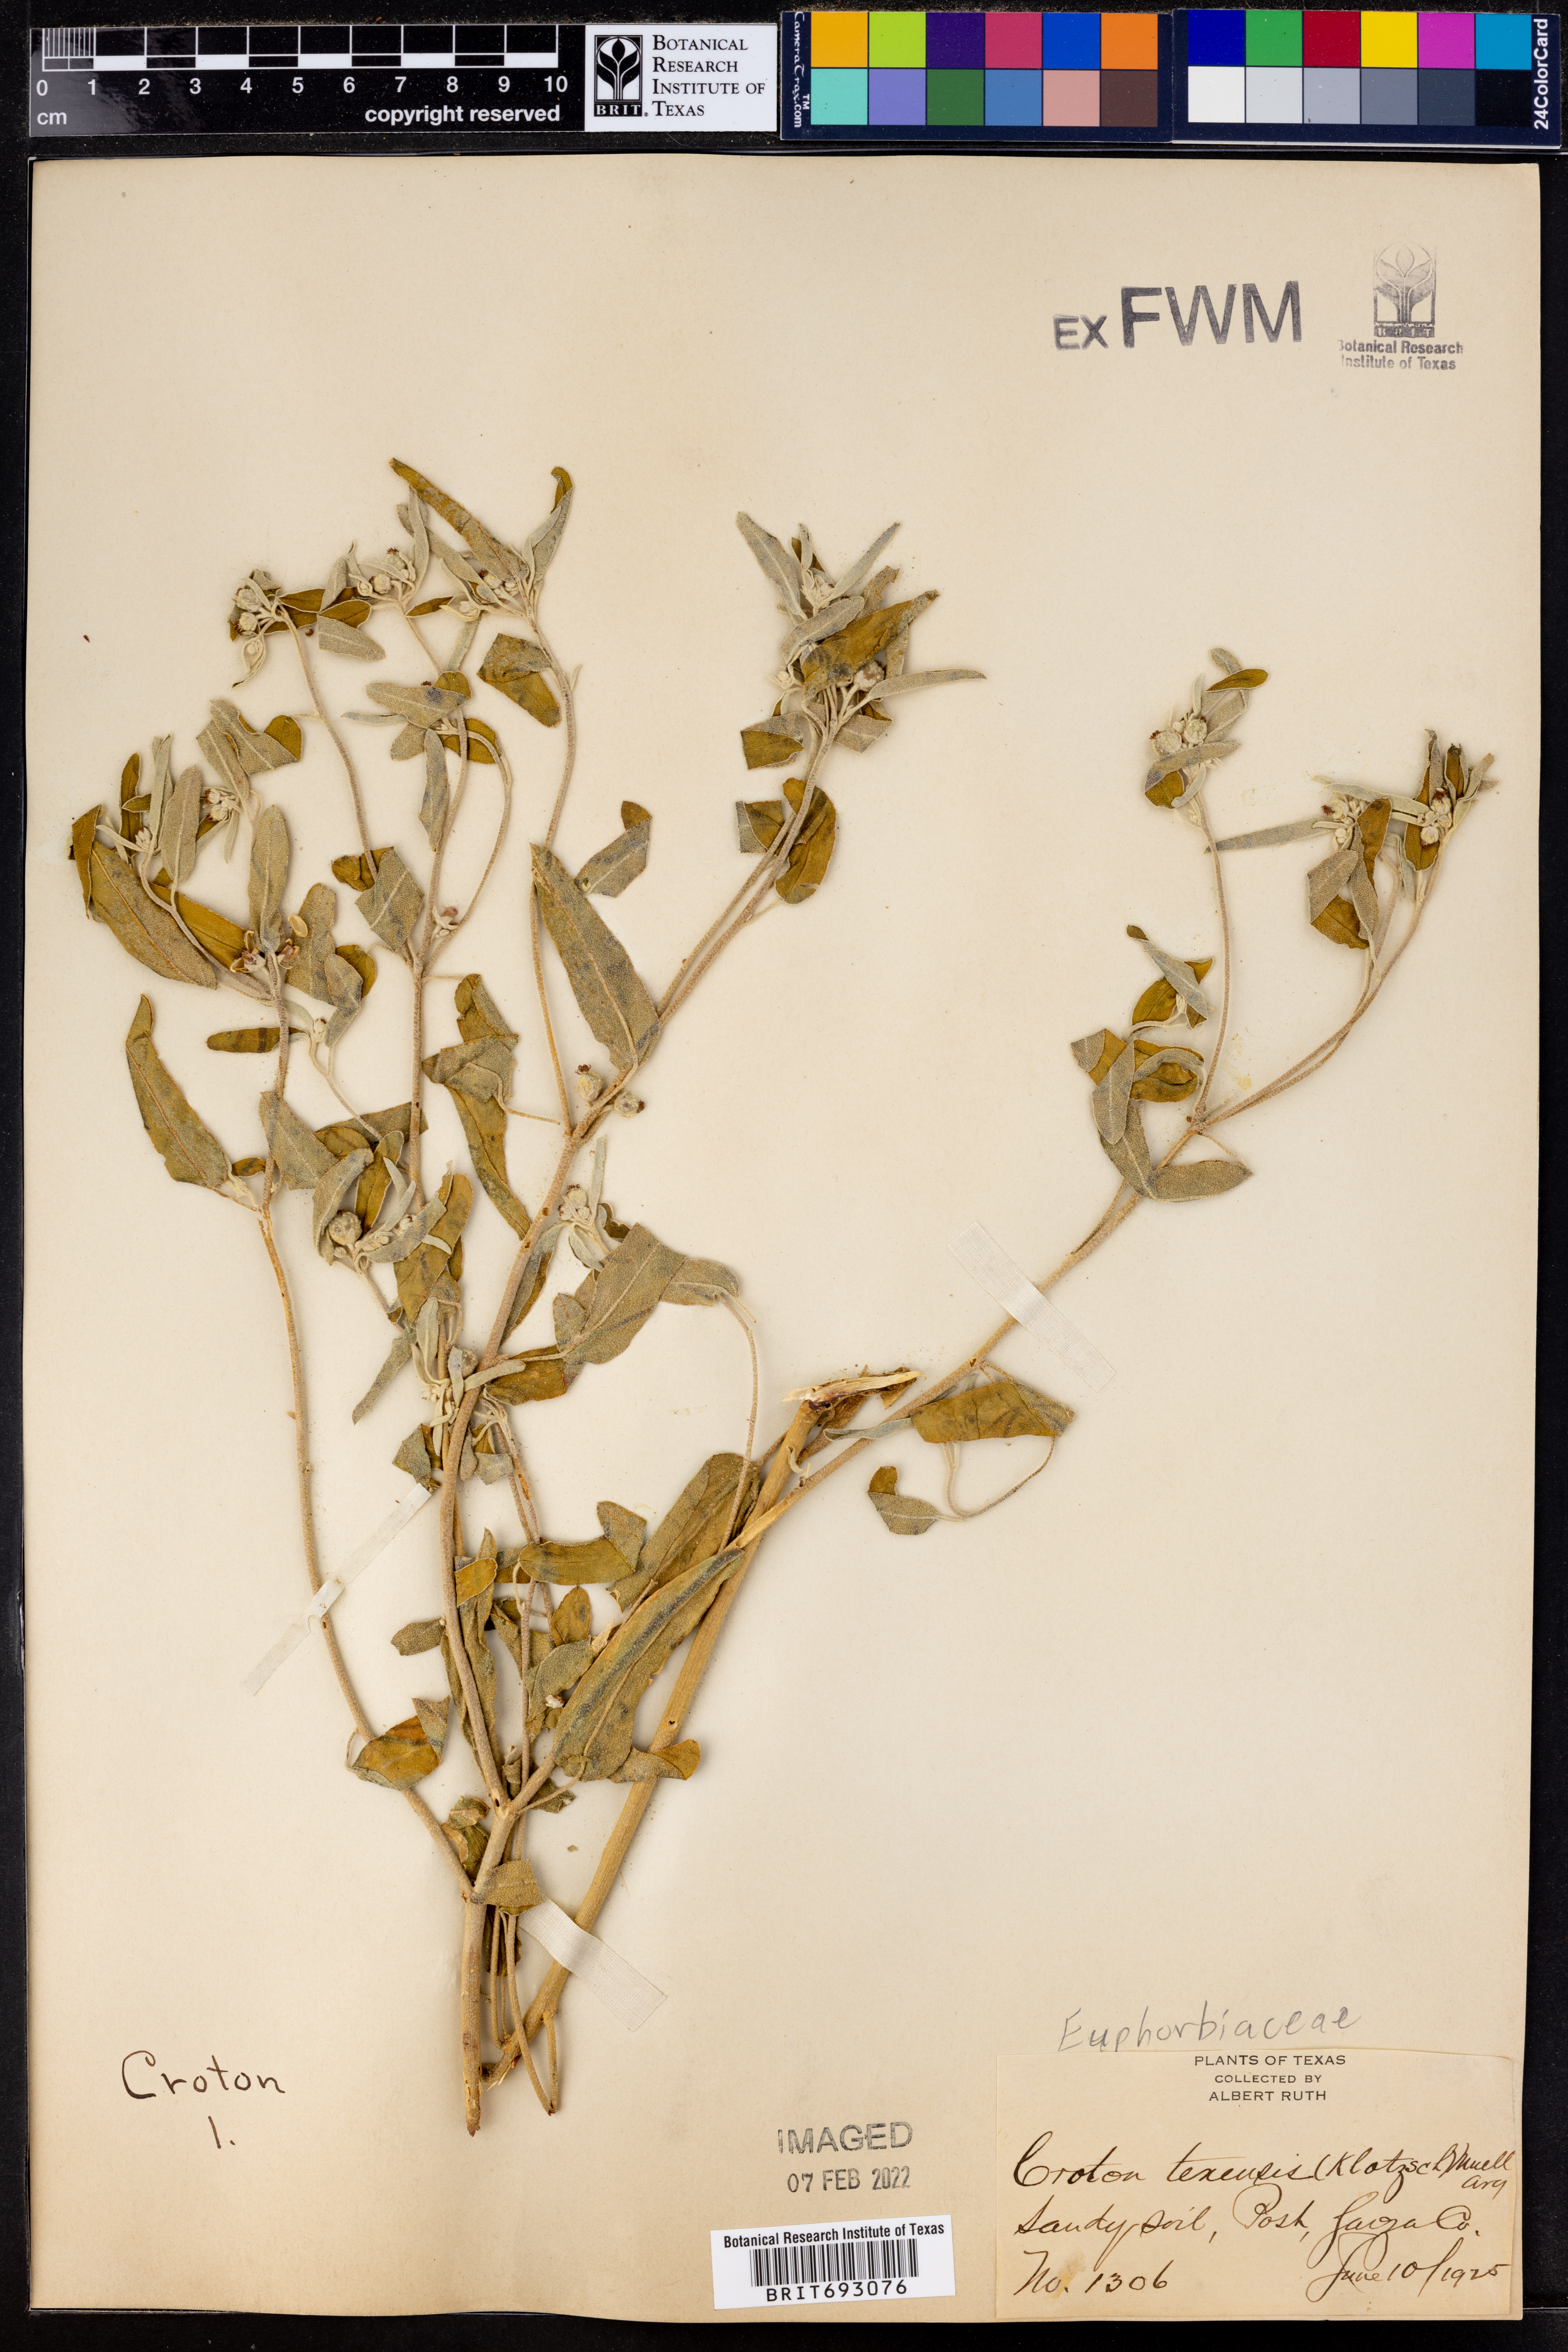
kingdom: Plantae
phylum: Tracheophyta
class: Magnoliopsida
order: Malpighiales
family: Euphorbiaceae
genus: Croton
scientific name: Croton texensis
